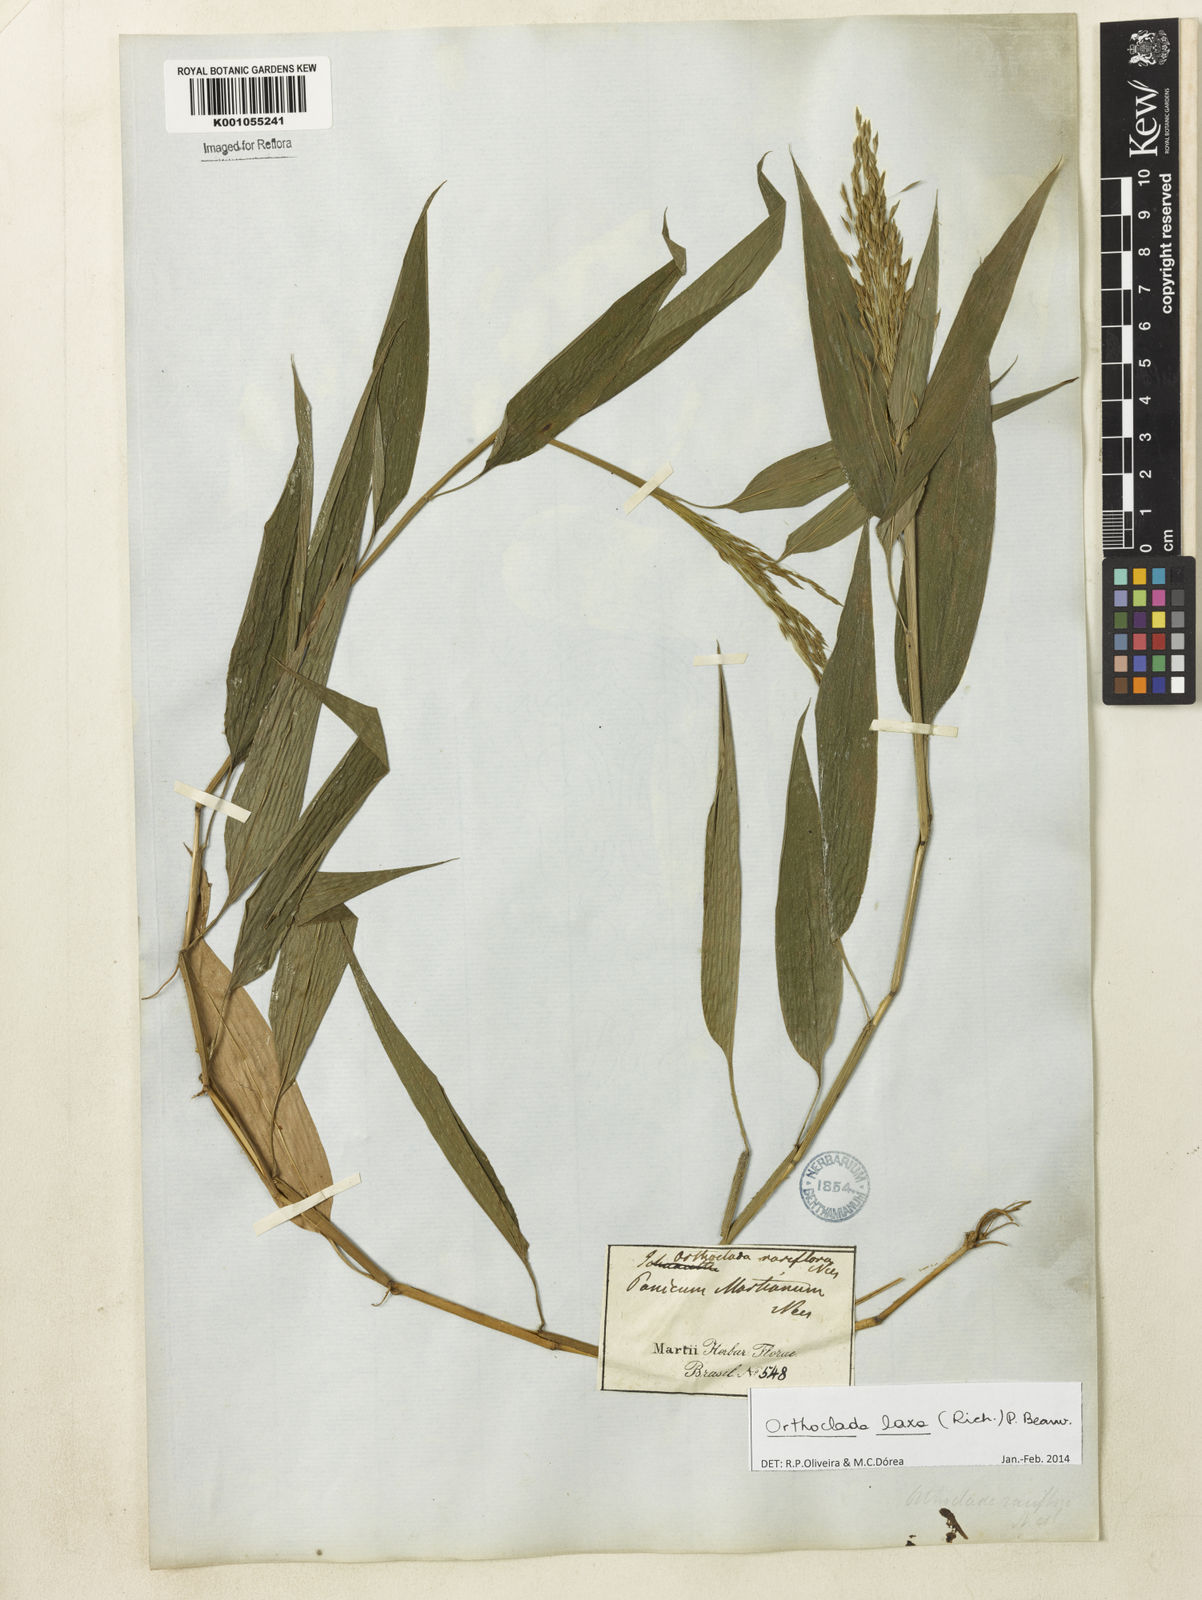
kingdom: Plantae
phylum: Tracheophyta
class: Liliopsida
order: Poales
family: Poaceae
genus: Orthoclada
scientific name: Orthoclada laxa
